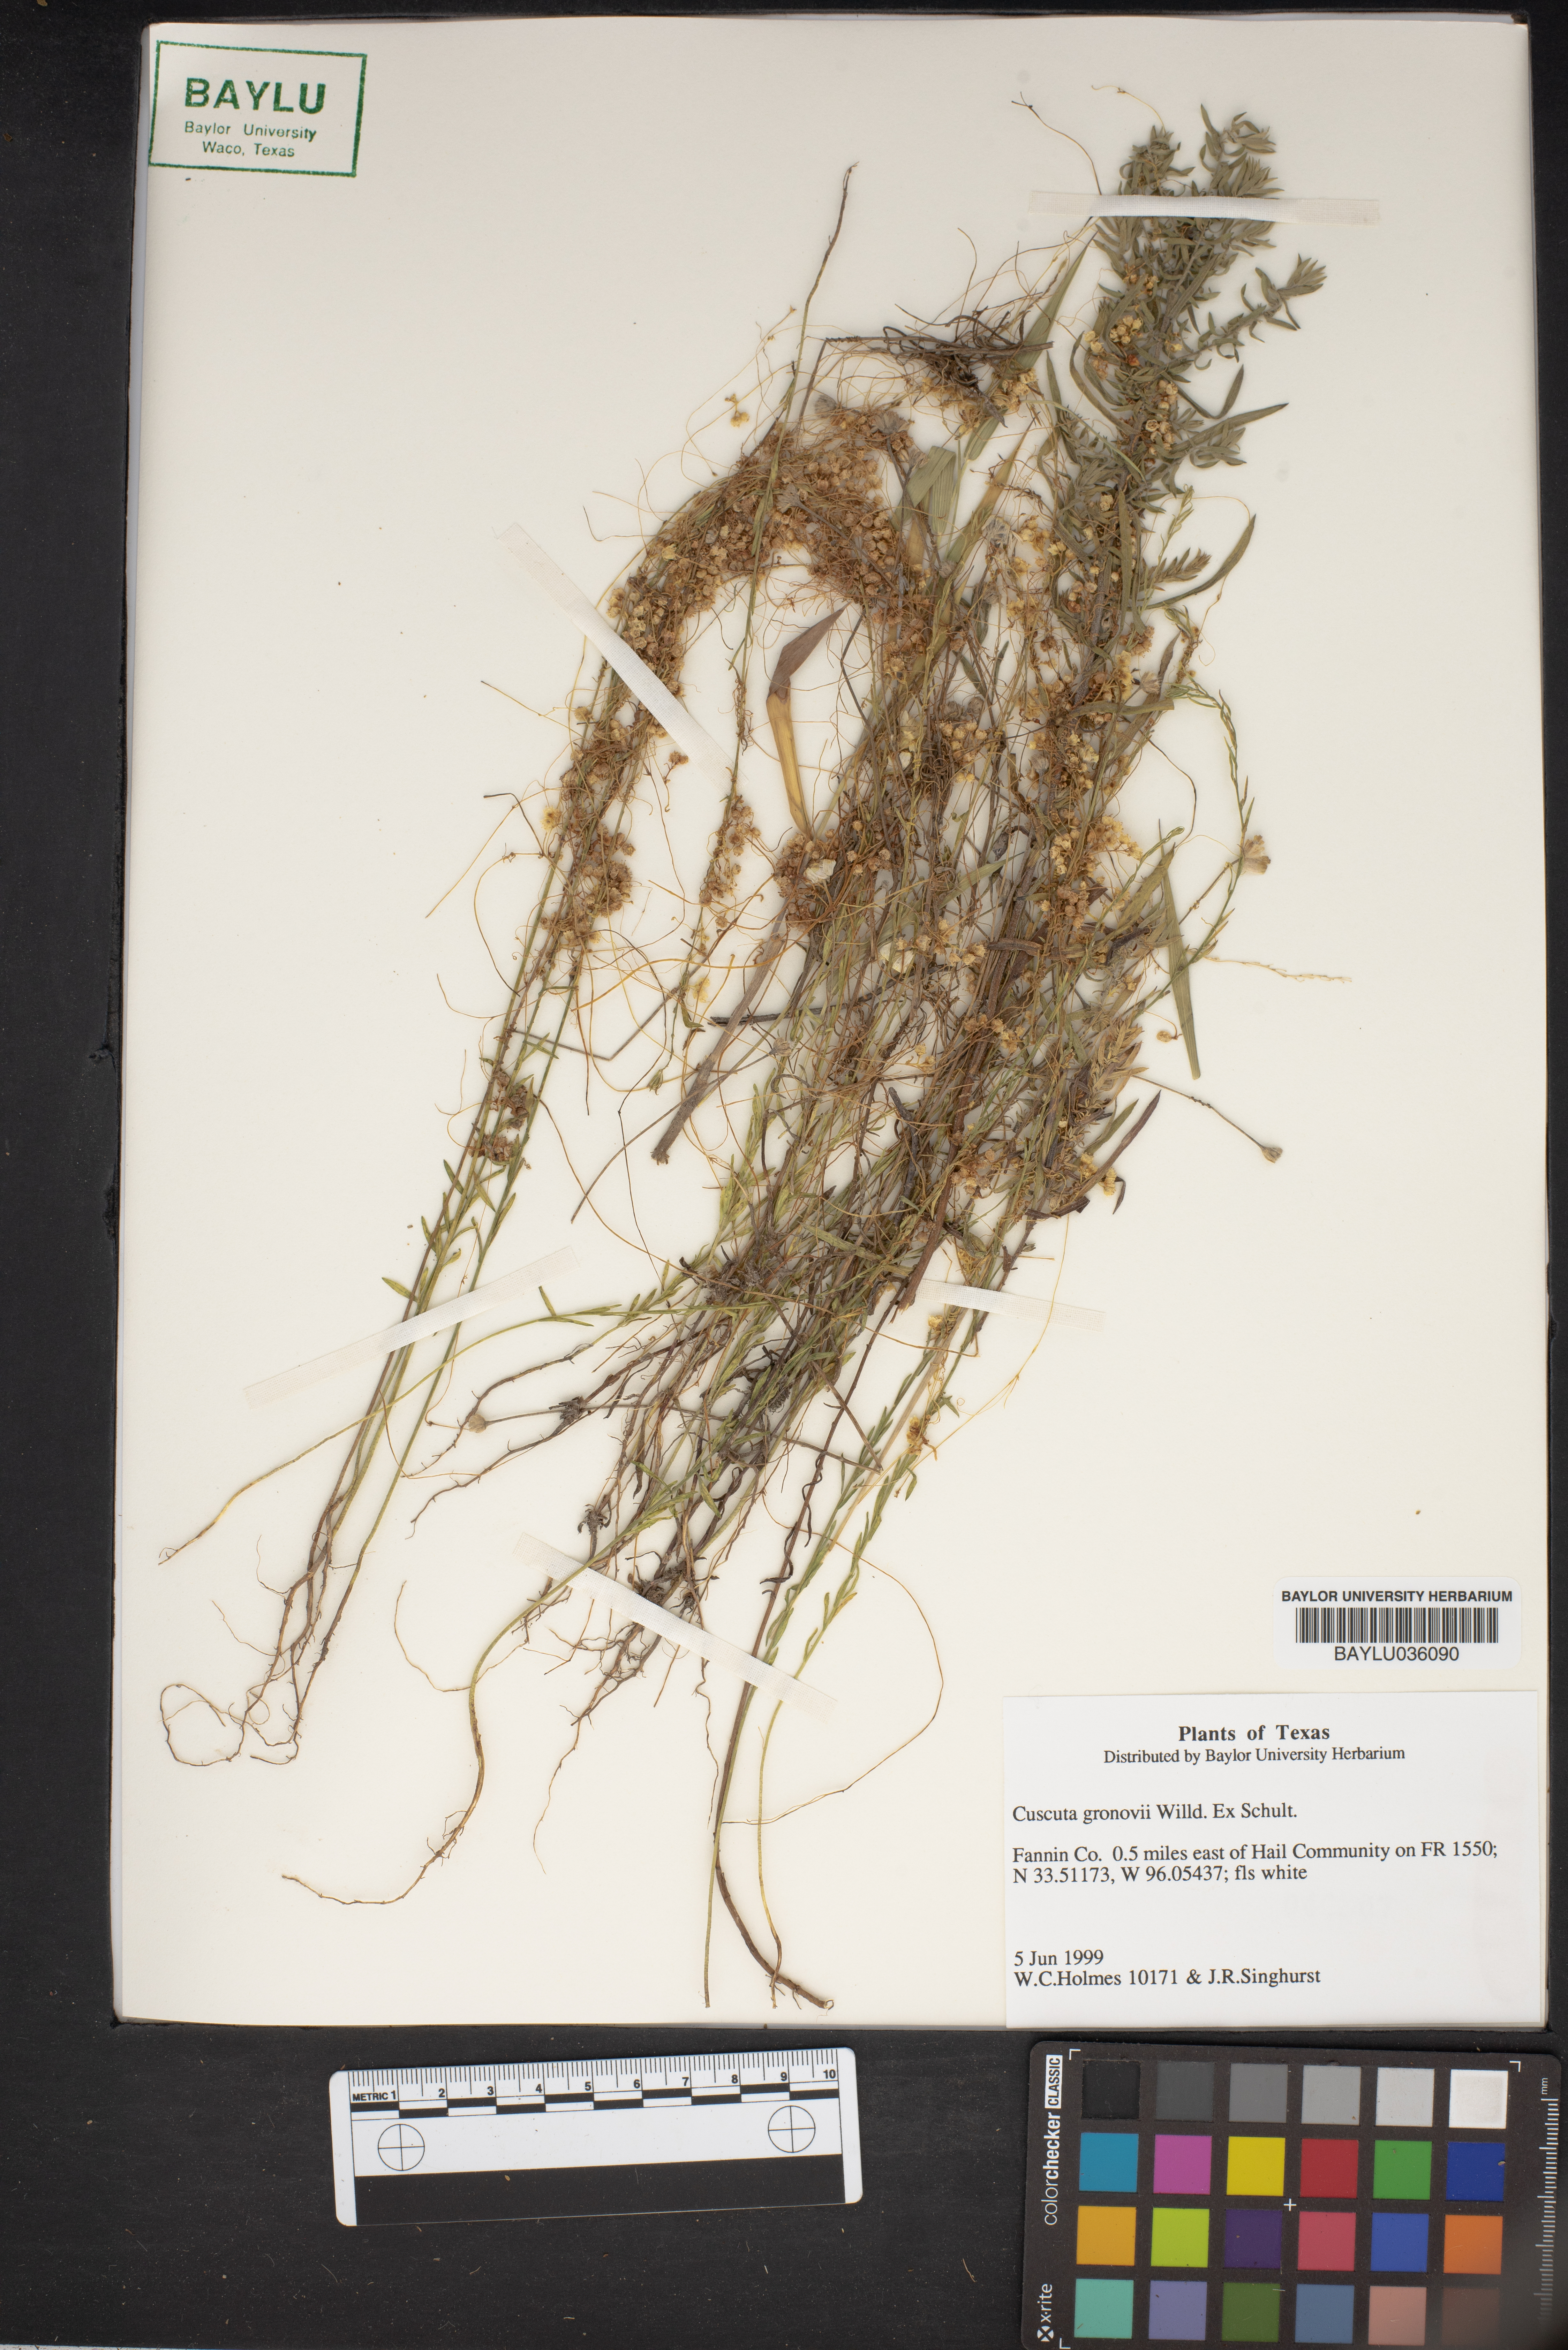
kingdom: Plantae
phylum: Tracheophyta
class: Magnoliopsida
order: Solanales
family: Convolvulaceae
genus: Cuscuta
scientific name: Cuscuta gronovii
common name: Common dodder
